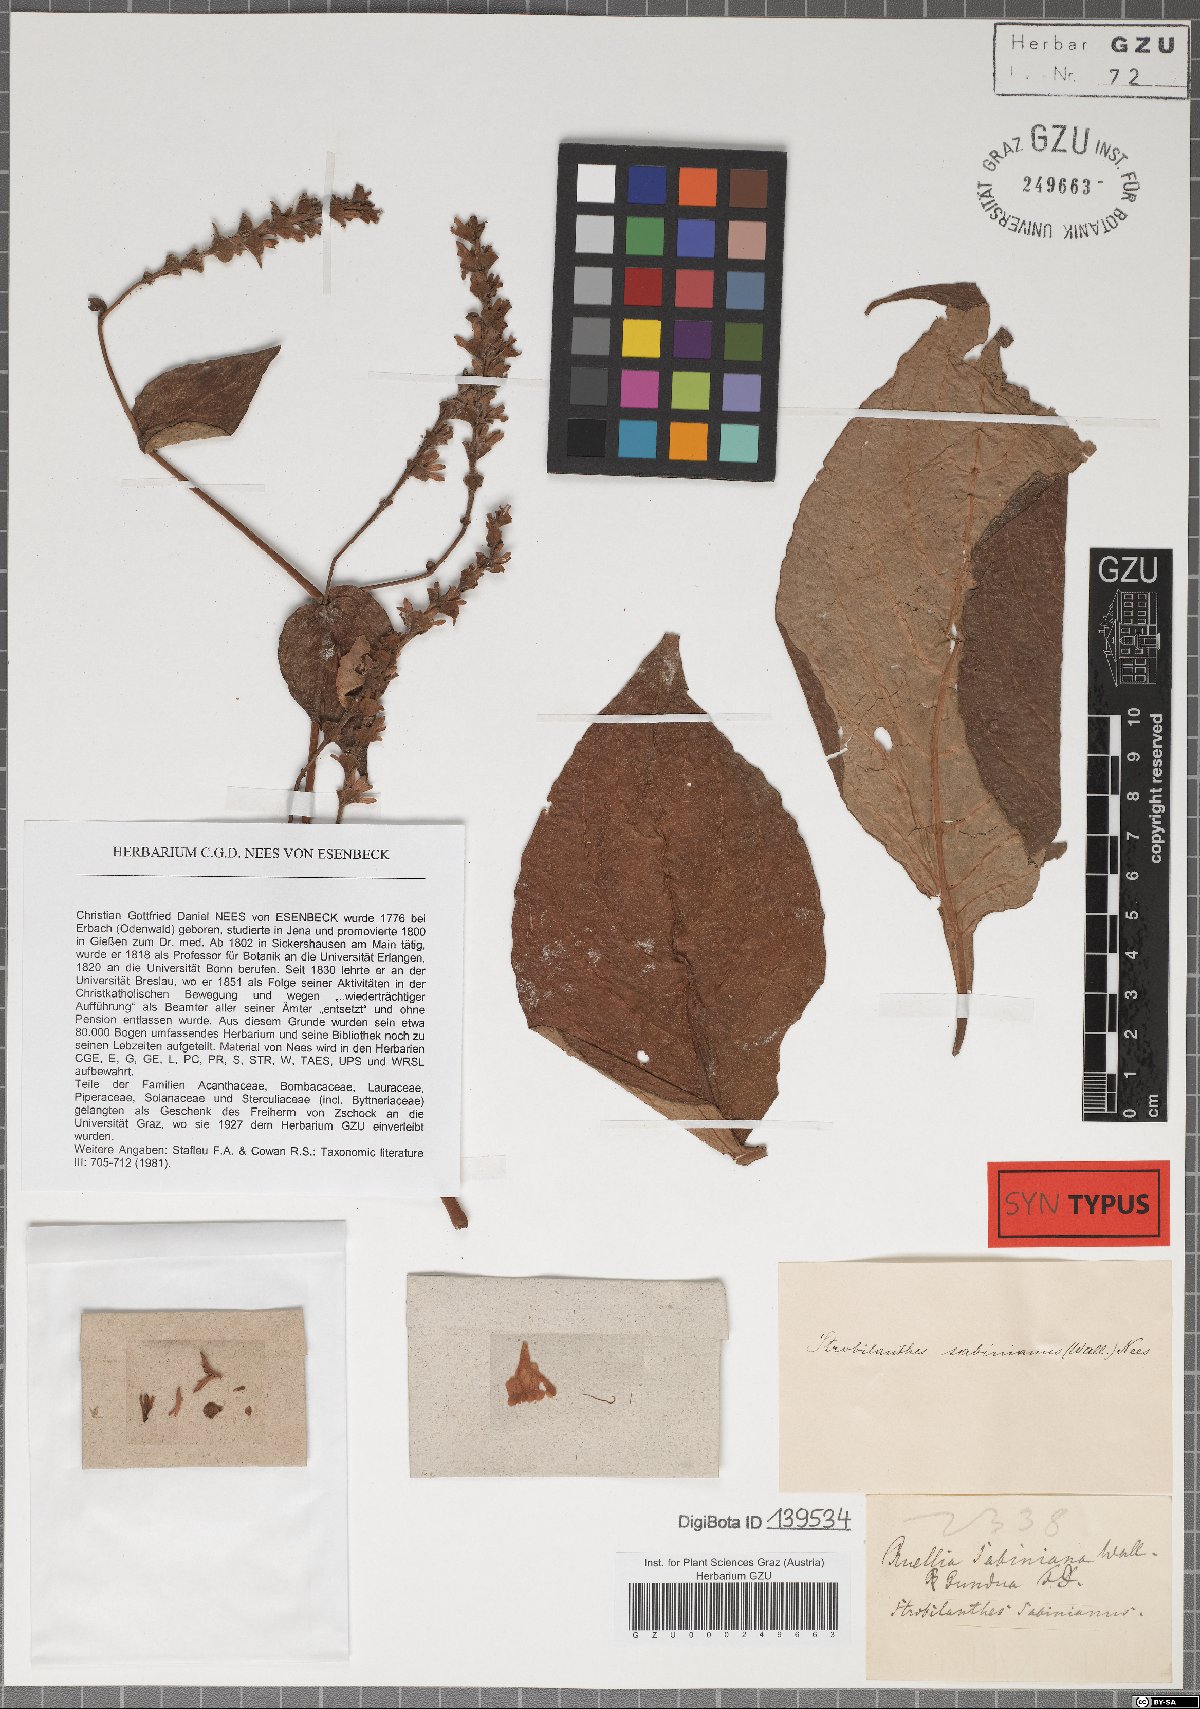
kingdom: Plantae
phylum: Tracheophyta
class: Magnoliopsida
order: Lamiales
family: Acanthaceae
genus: Strobilanthes
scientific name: Strobilanthes sabiniana
